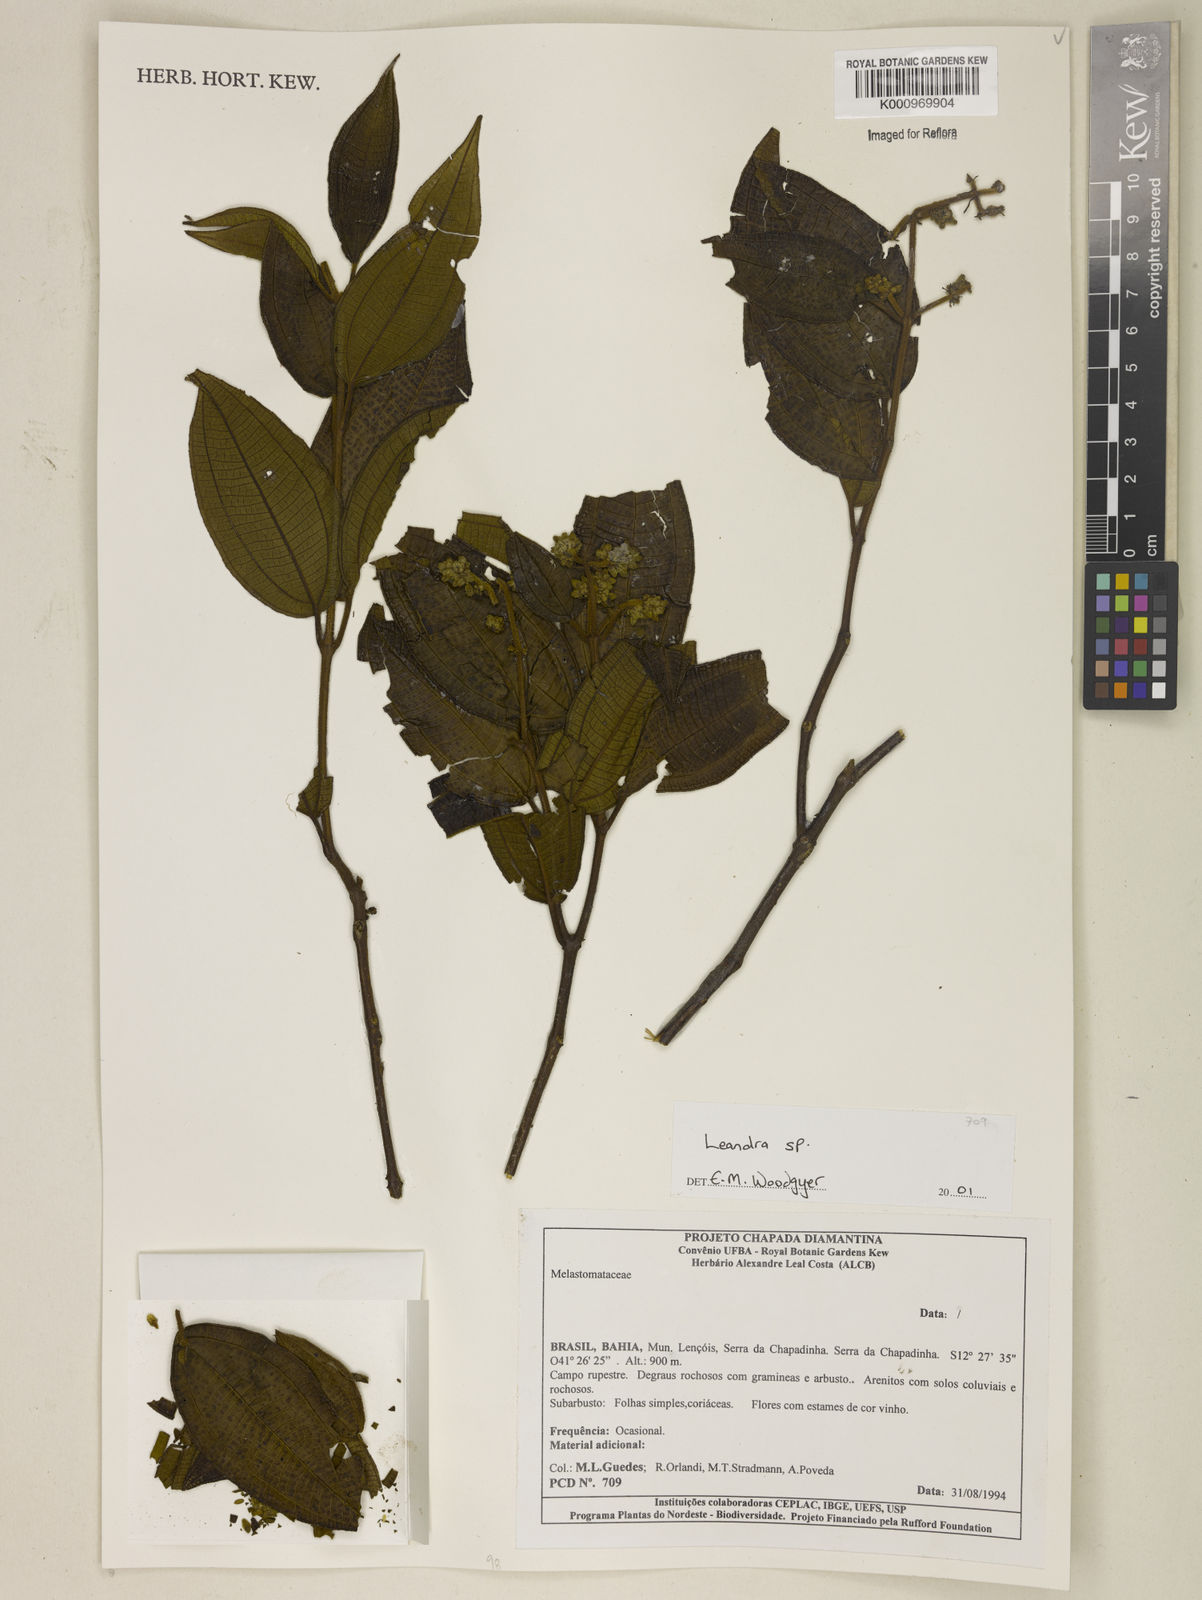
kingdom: Plantae
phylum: Tracheophyta
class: Magnoliopsida
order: Myrtales
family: Melastomataceae
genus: Miconia
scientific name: Miconia
